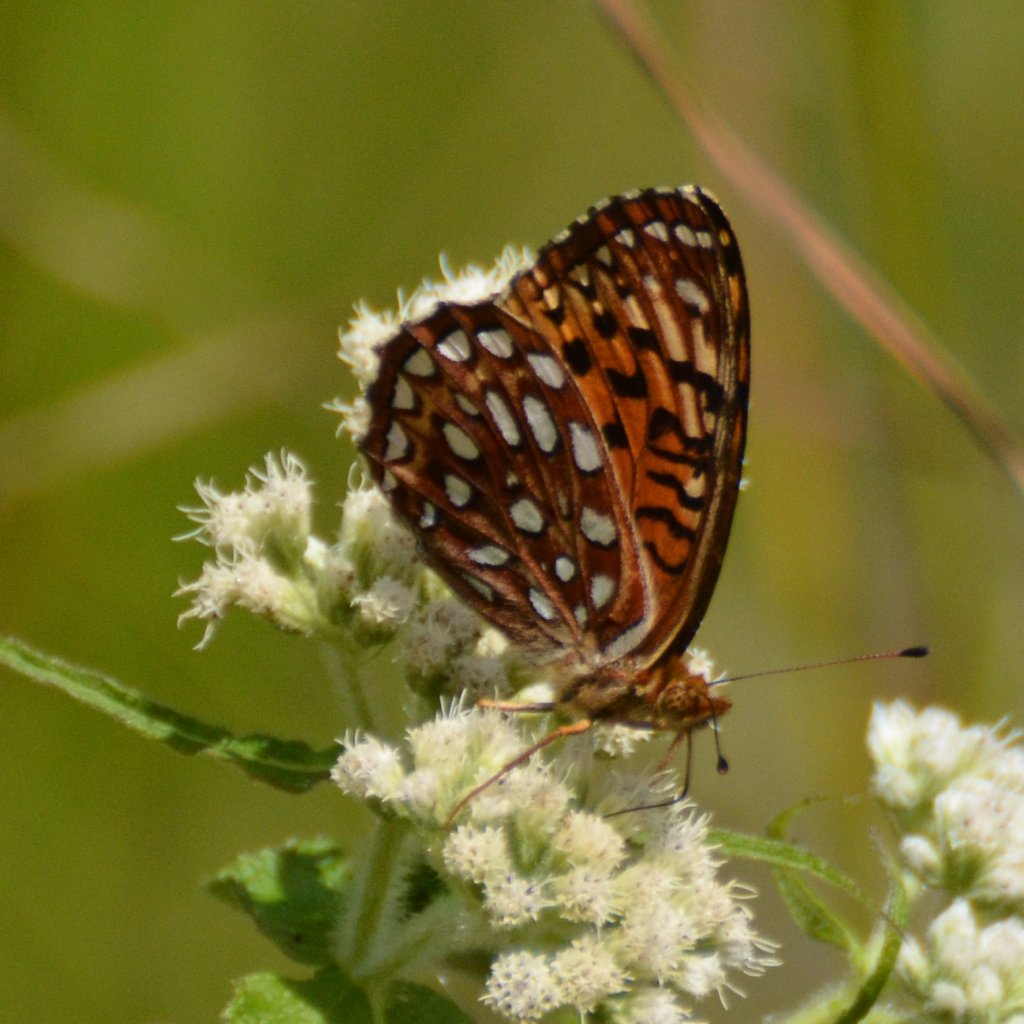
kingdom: Animalia
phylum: Arthropoda
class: Insecta
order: Lepidoptera
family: Nymphalidae
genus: Speyeria
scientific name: Speyeria aphrodite
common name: Aphrodite Fritillary
